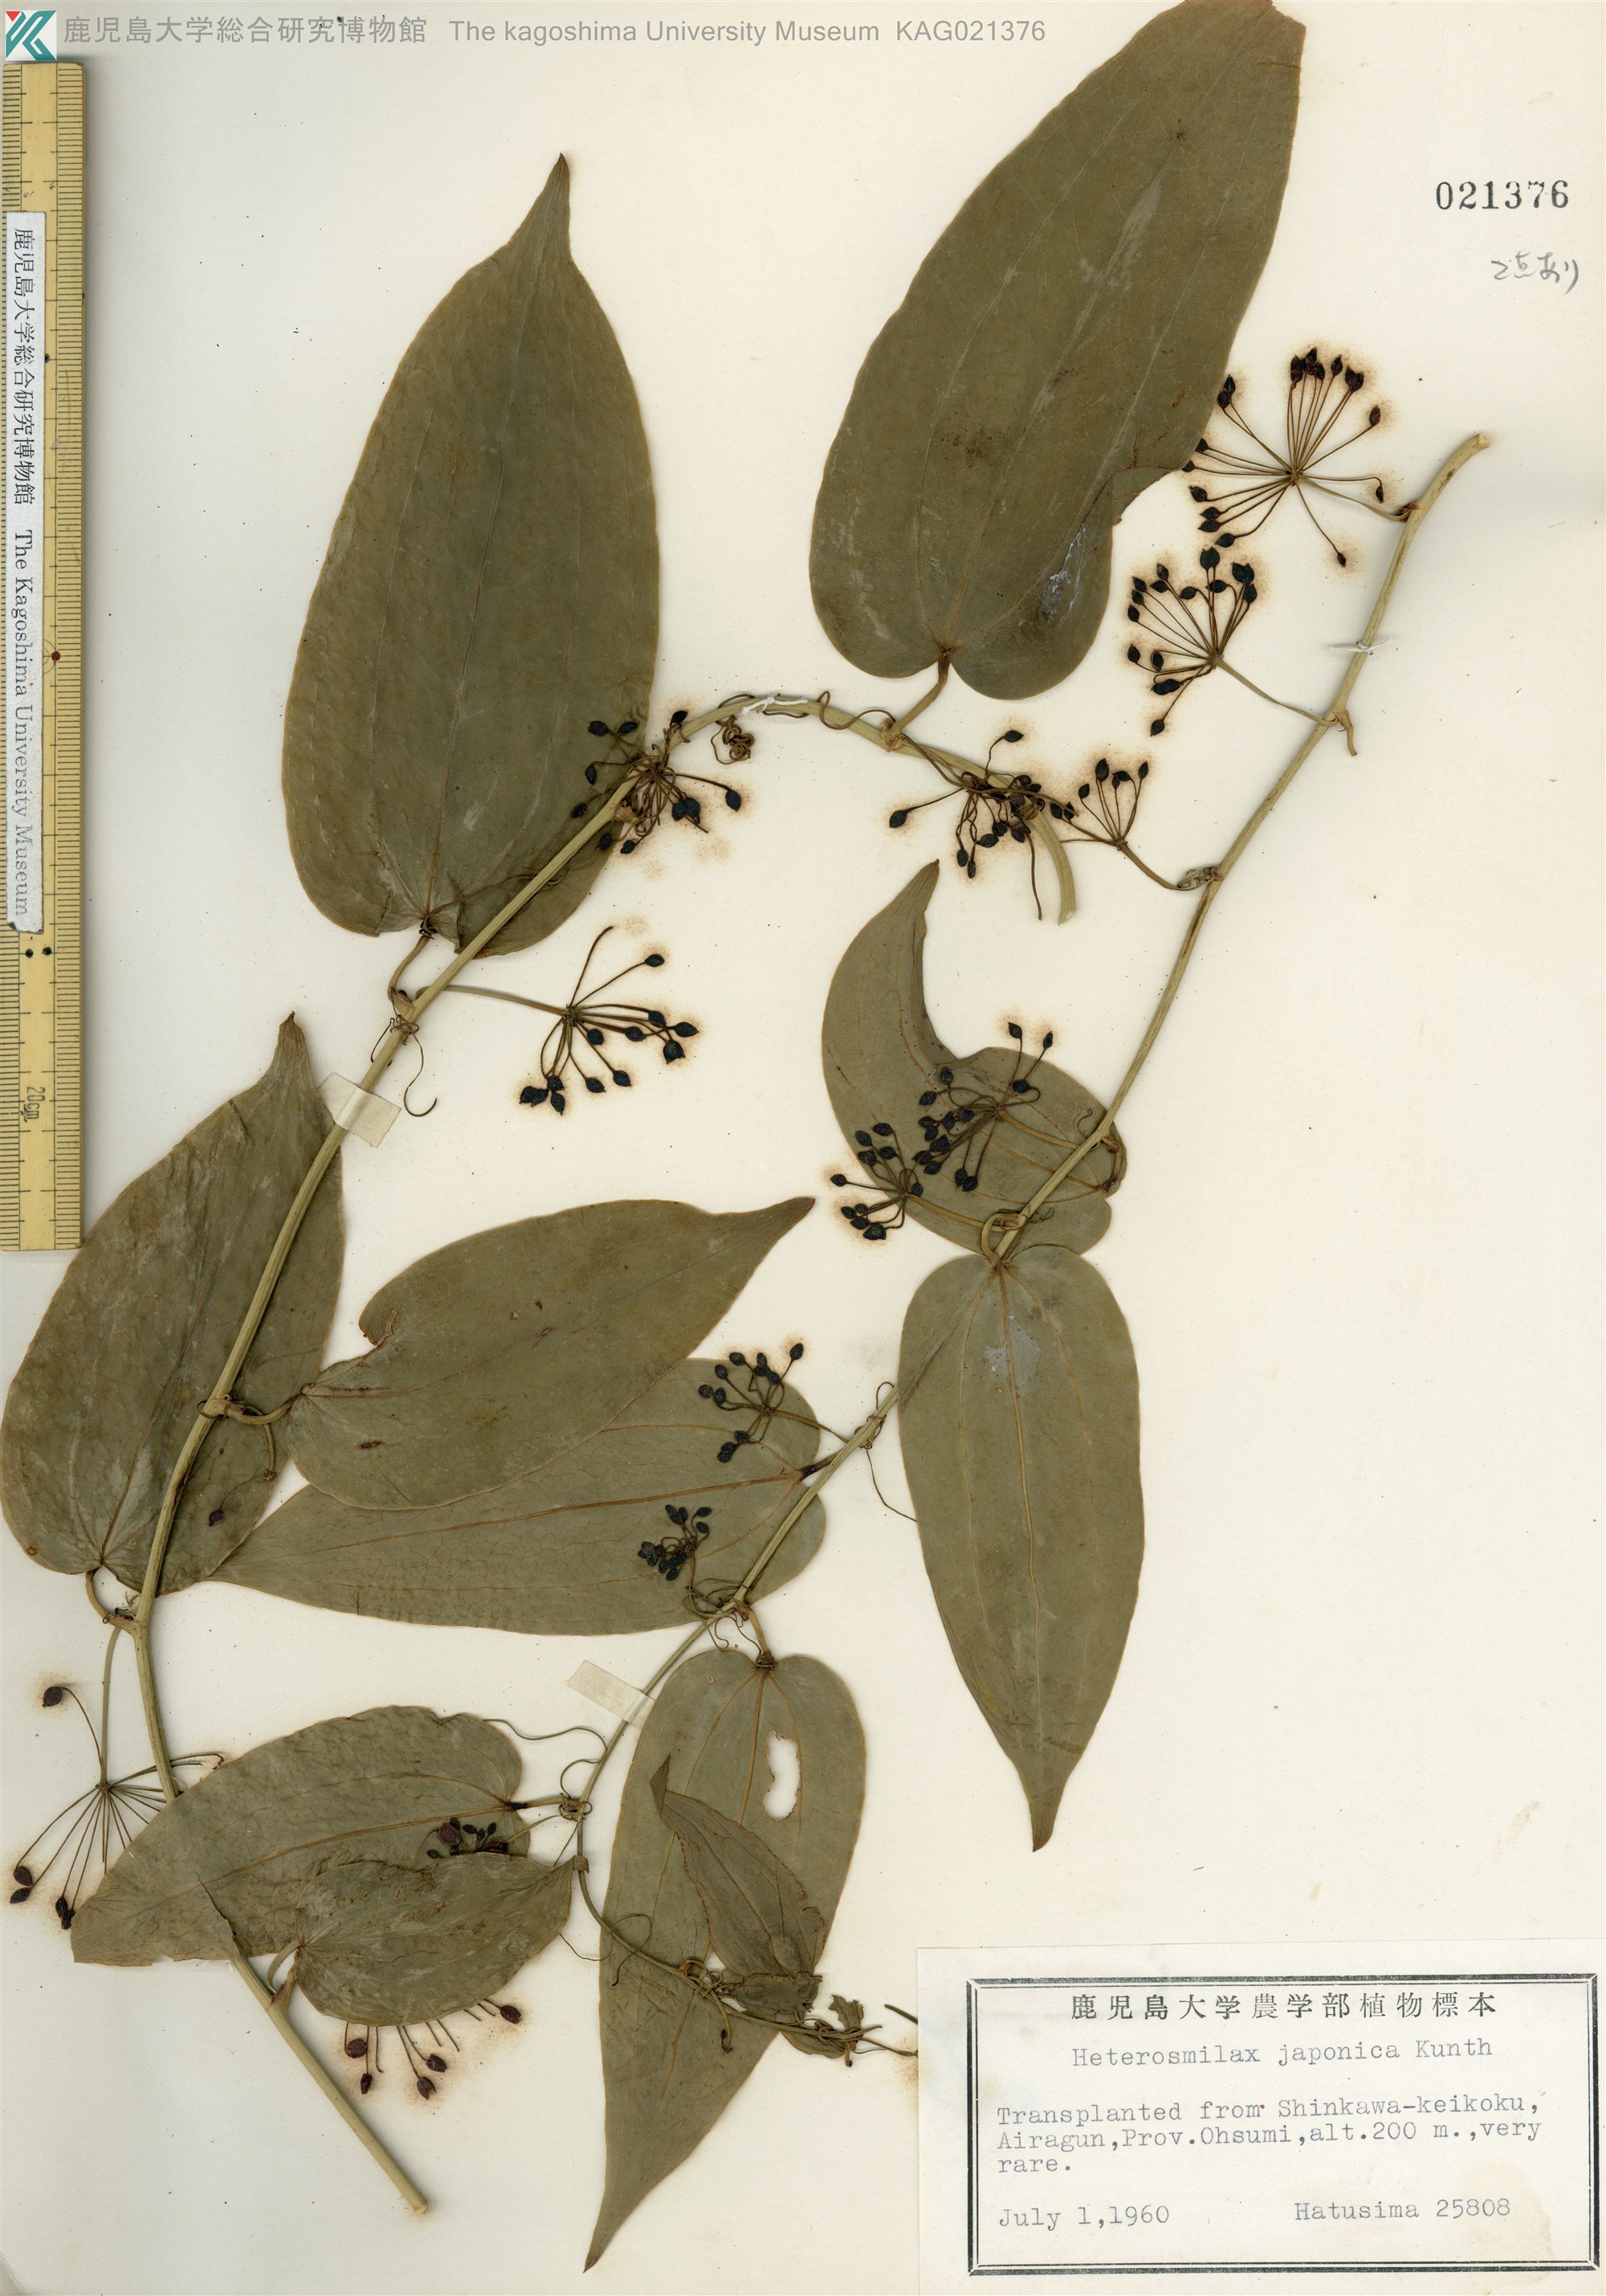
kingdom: Plantae
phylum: Tracheophyta
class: Liliopsida
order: Liliales
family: Smilacaceae
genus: Smilax
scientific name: Smilax insularis
